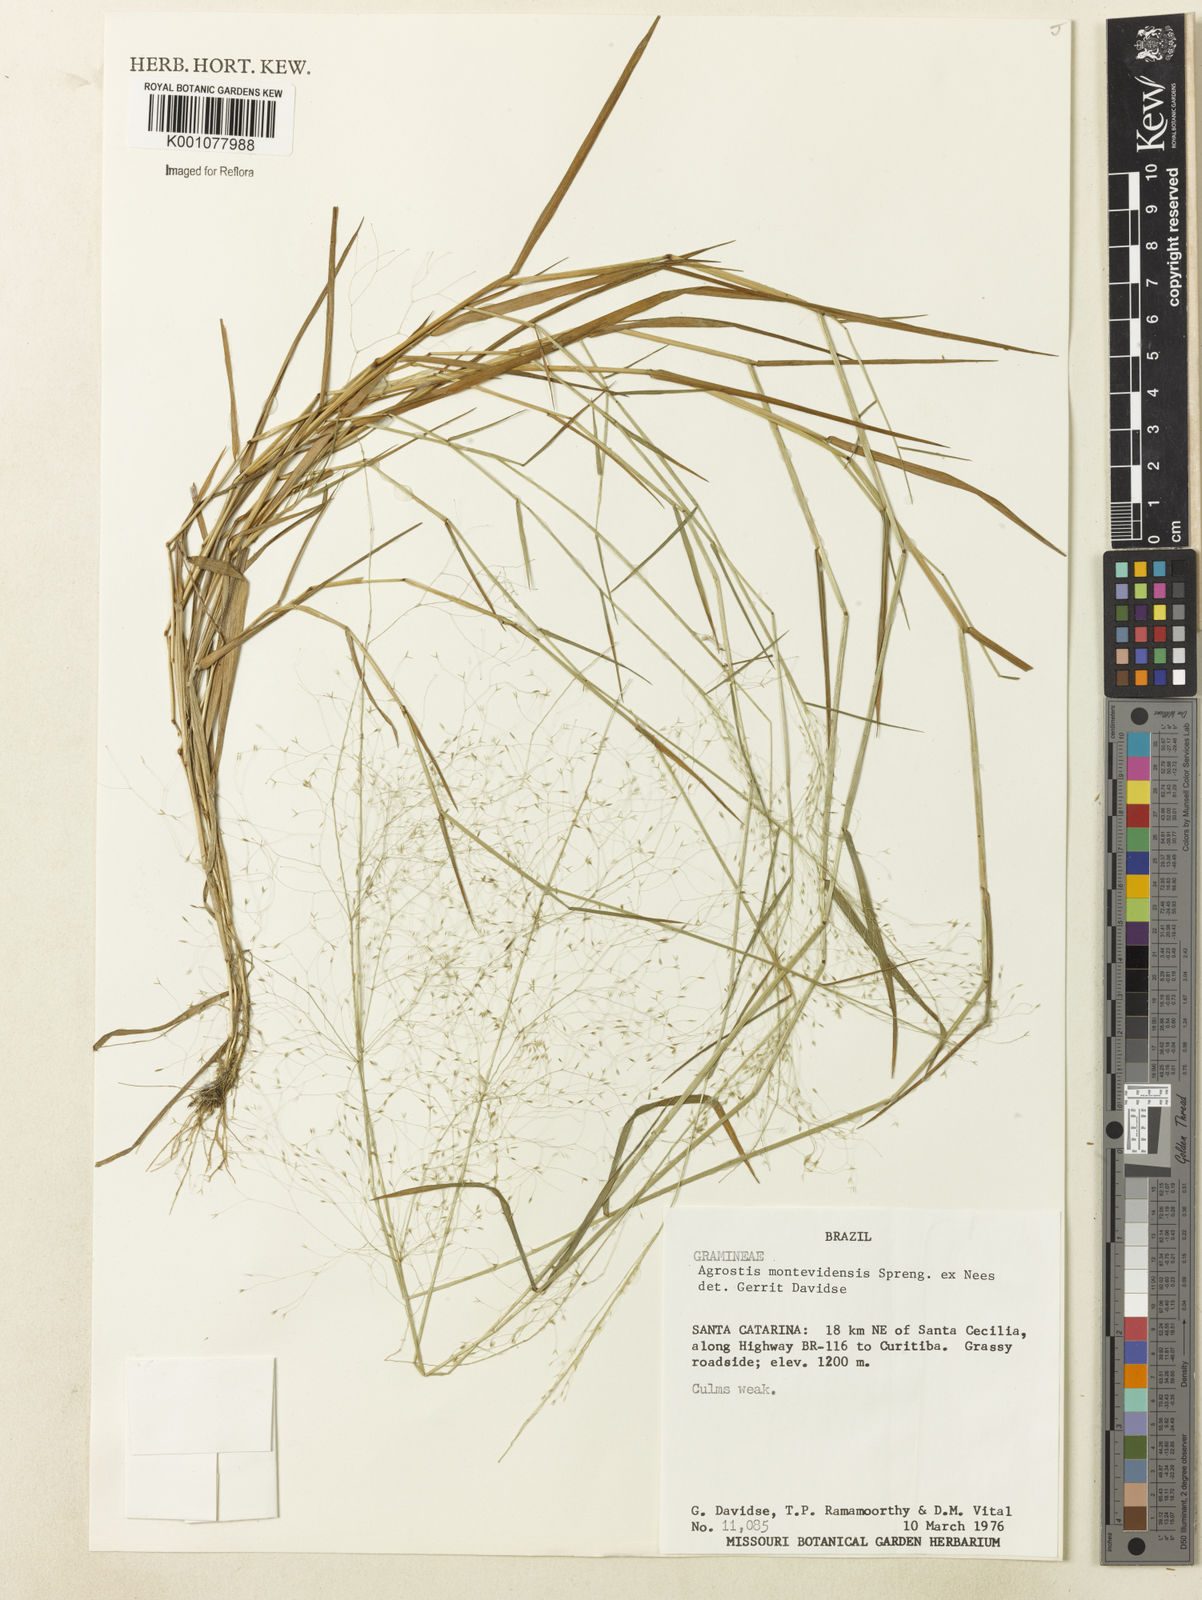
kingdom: Plantae
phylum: Tracheophyta
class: Liliopsida
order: Poales
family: Poaceae
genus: Agrostis
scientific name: Agrostis montevidensis
